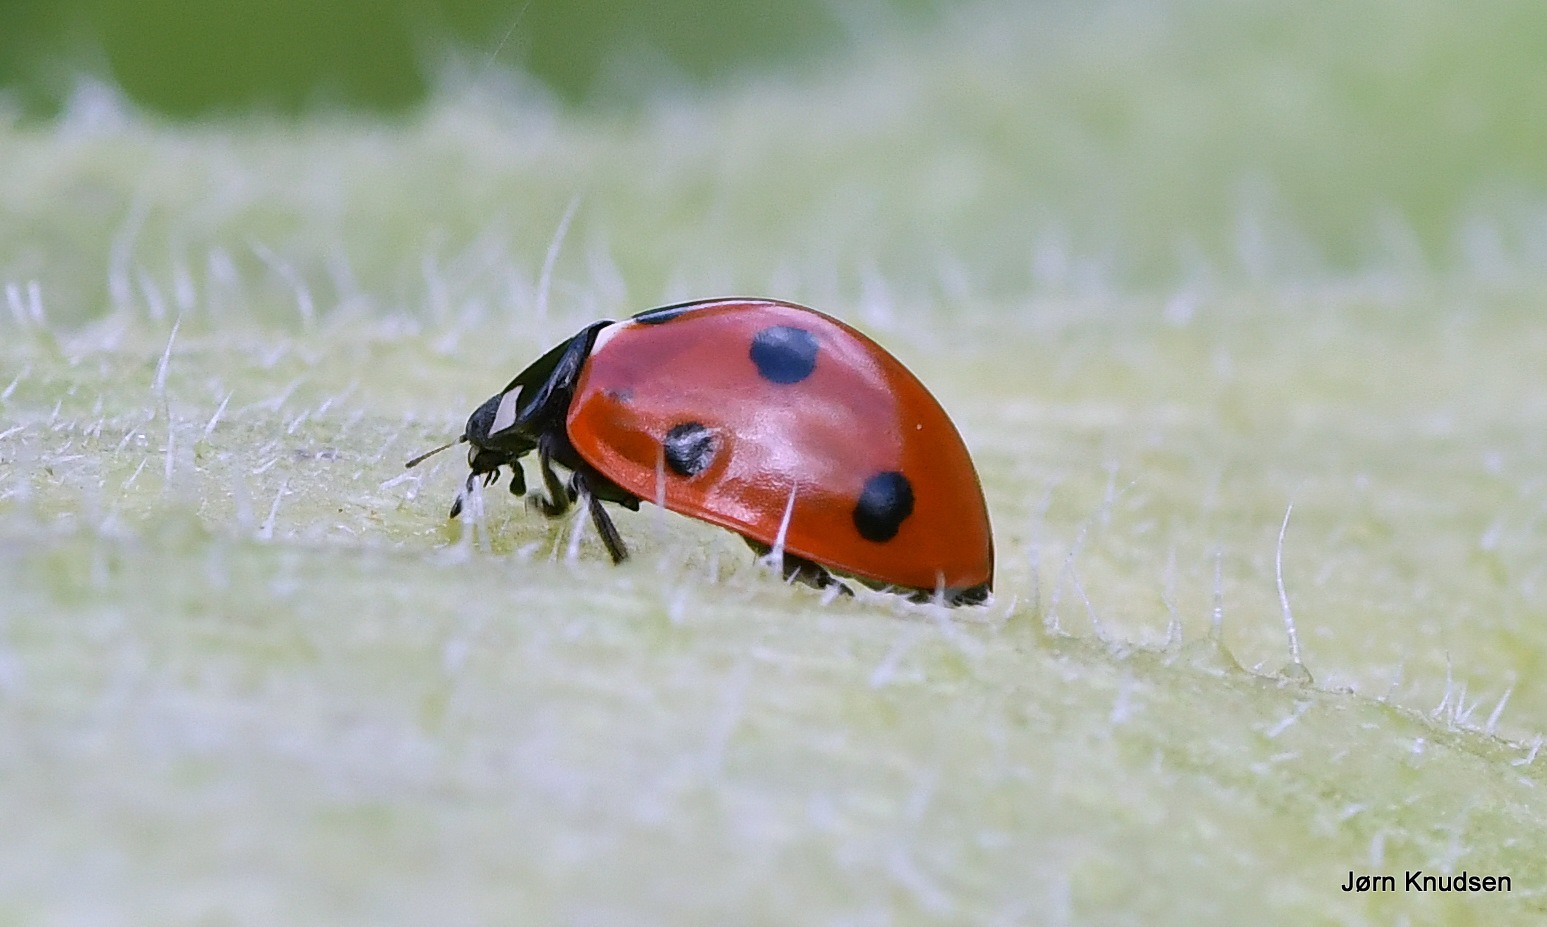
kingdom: Animalia
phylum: Arthropoda
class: Insecta
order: Coleoptera
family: Coccinellidae
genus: Coccinella
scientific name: Coccinella septempunctata
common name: Syvplettet mariehøne
